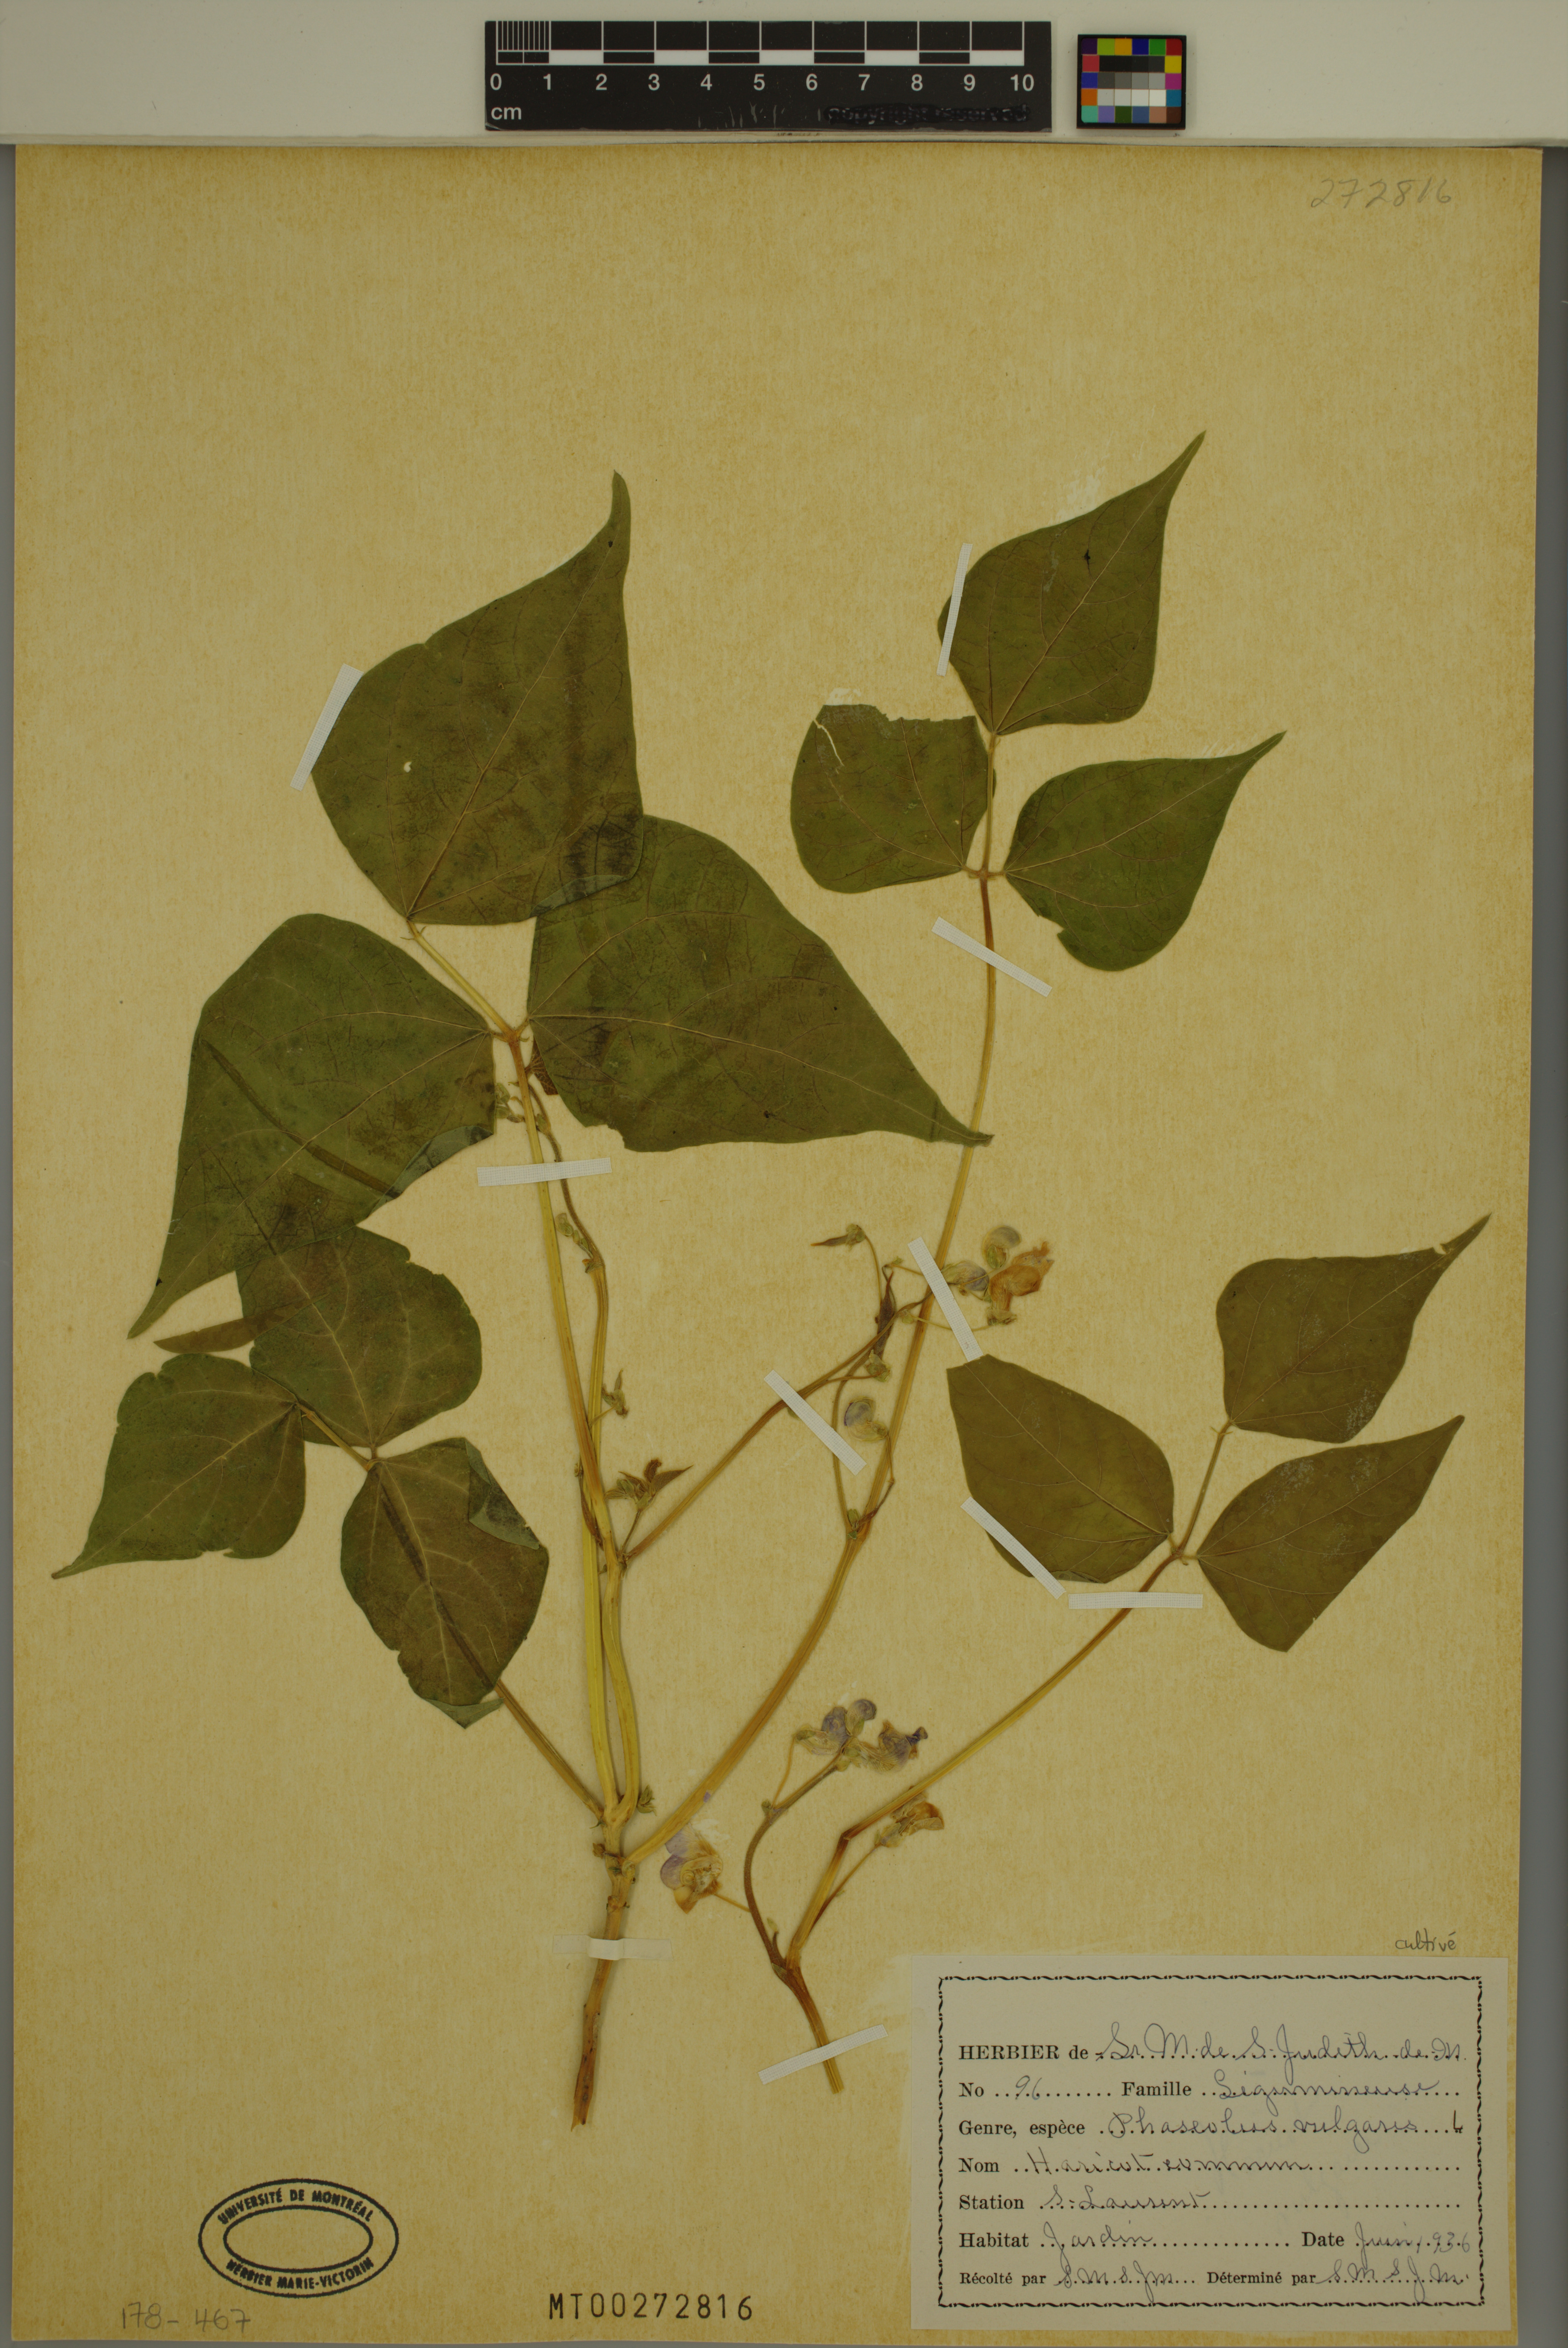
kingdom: Plantae
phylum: Tracheophyta
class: Magnoliopsida
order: Fabales
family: Fabaceae
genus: Phaseolus
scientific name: Phaseolus vulgaris
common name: Bean
